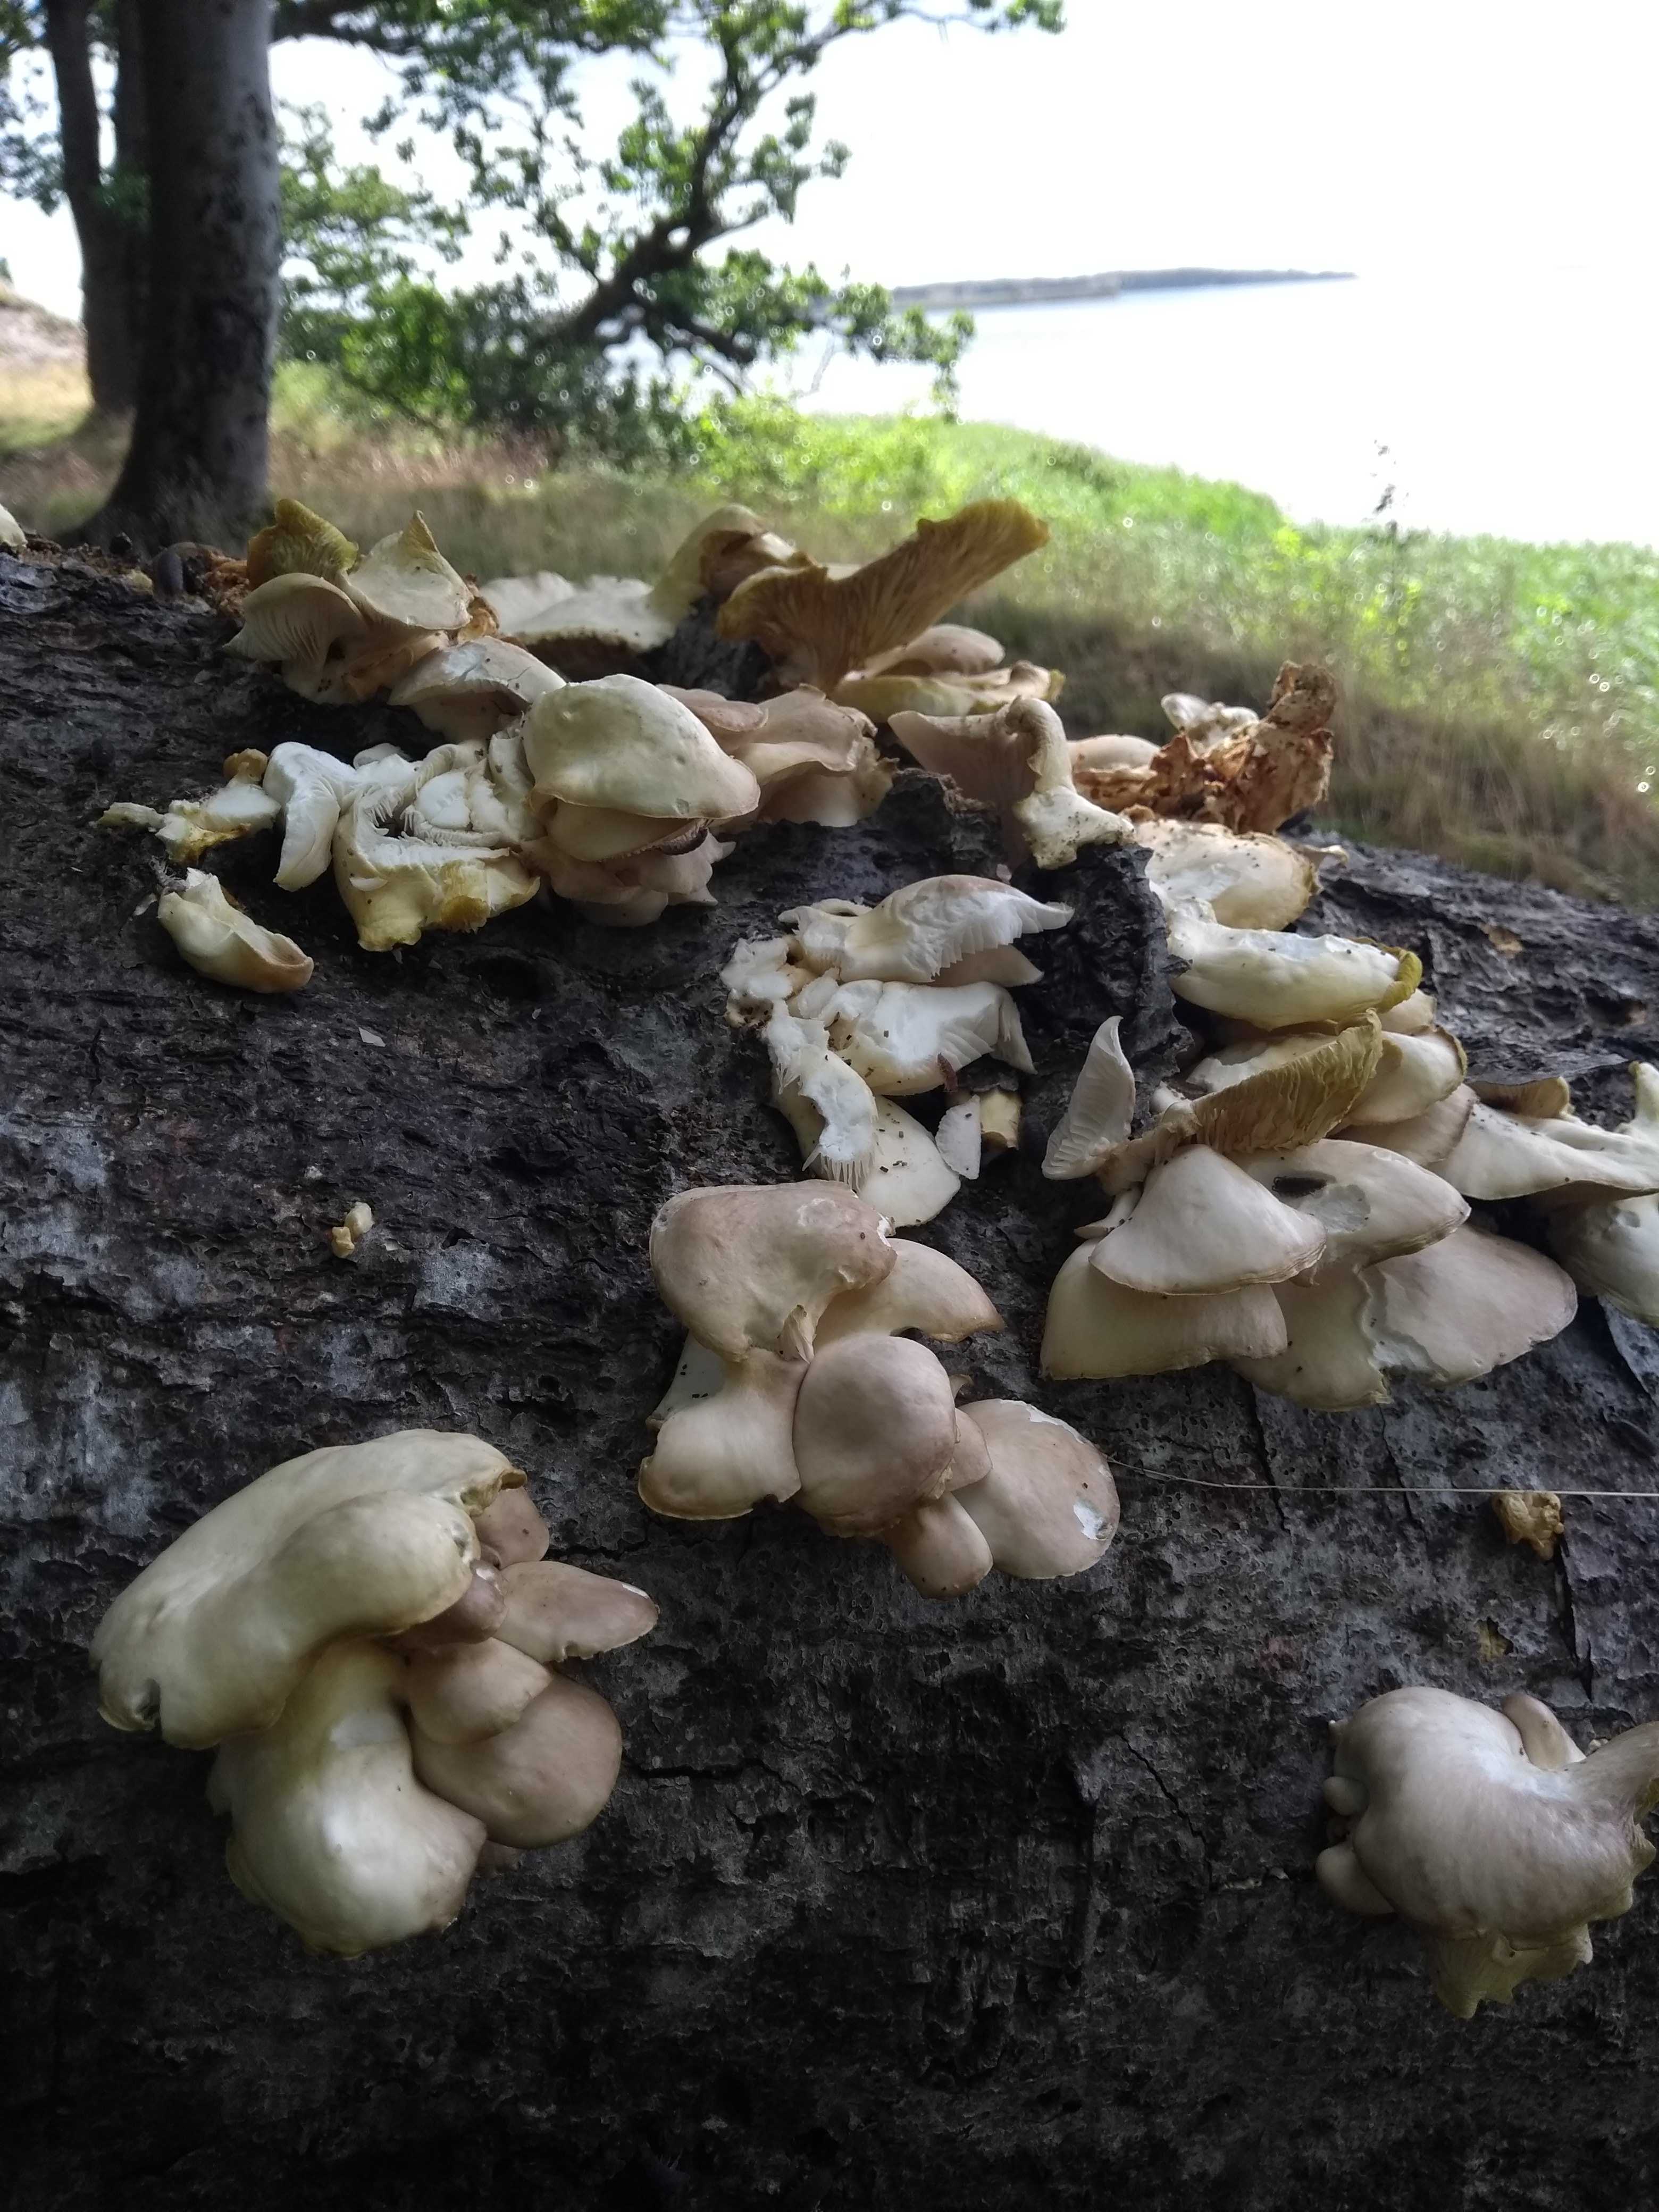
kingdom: Fungi
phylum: Basidiomycota
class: Agaricomycetes
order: Agaricales
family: Pleurotaceae
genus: Pleurotus
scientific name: Pleurotus pulmonarius
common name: sommer-østershat
